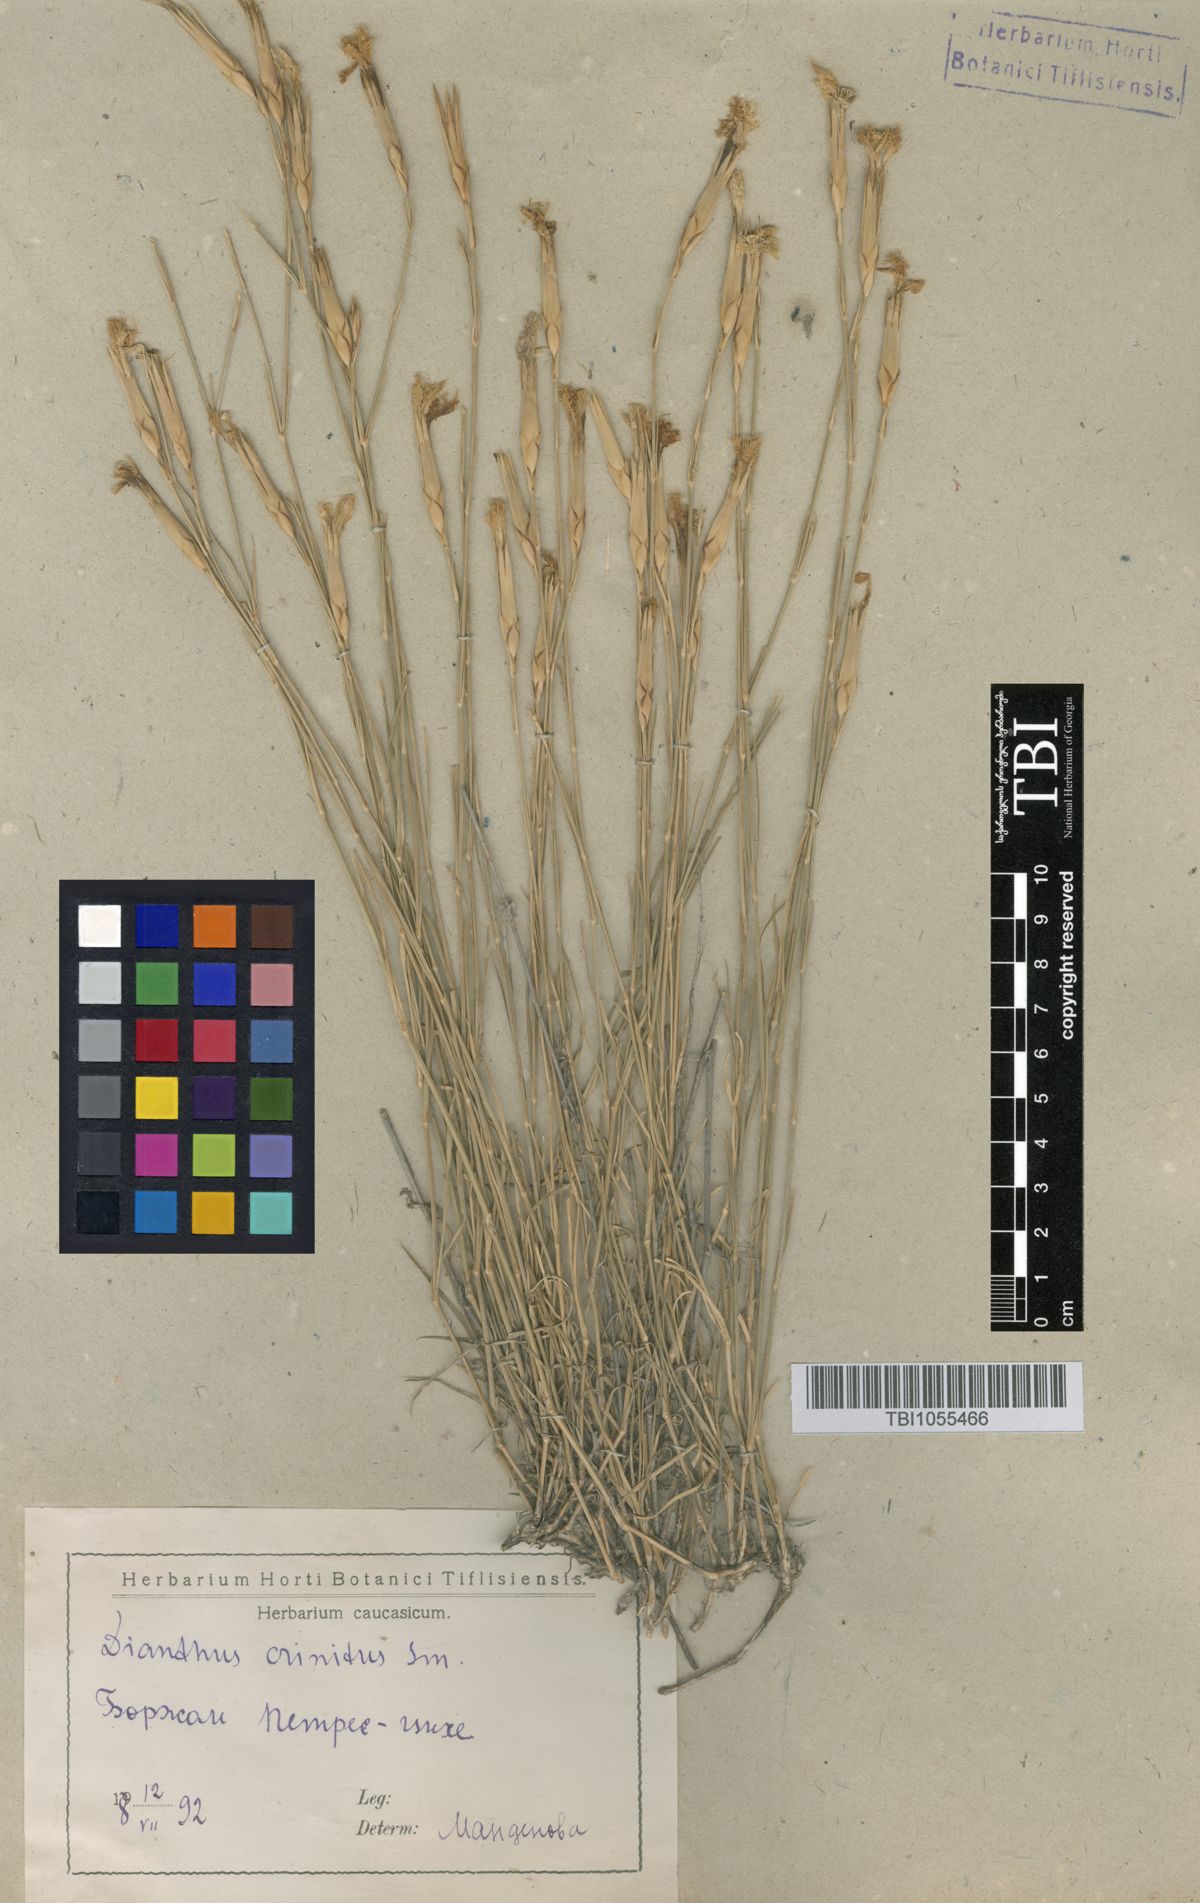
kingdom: Plantae
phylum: Tracheophyta
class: Magnoliopsida
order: Caryophyllales
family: Caryophyllaceae
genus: Dianthus
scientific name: Dianthus crinitus
